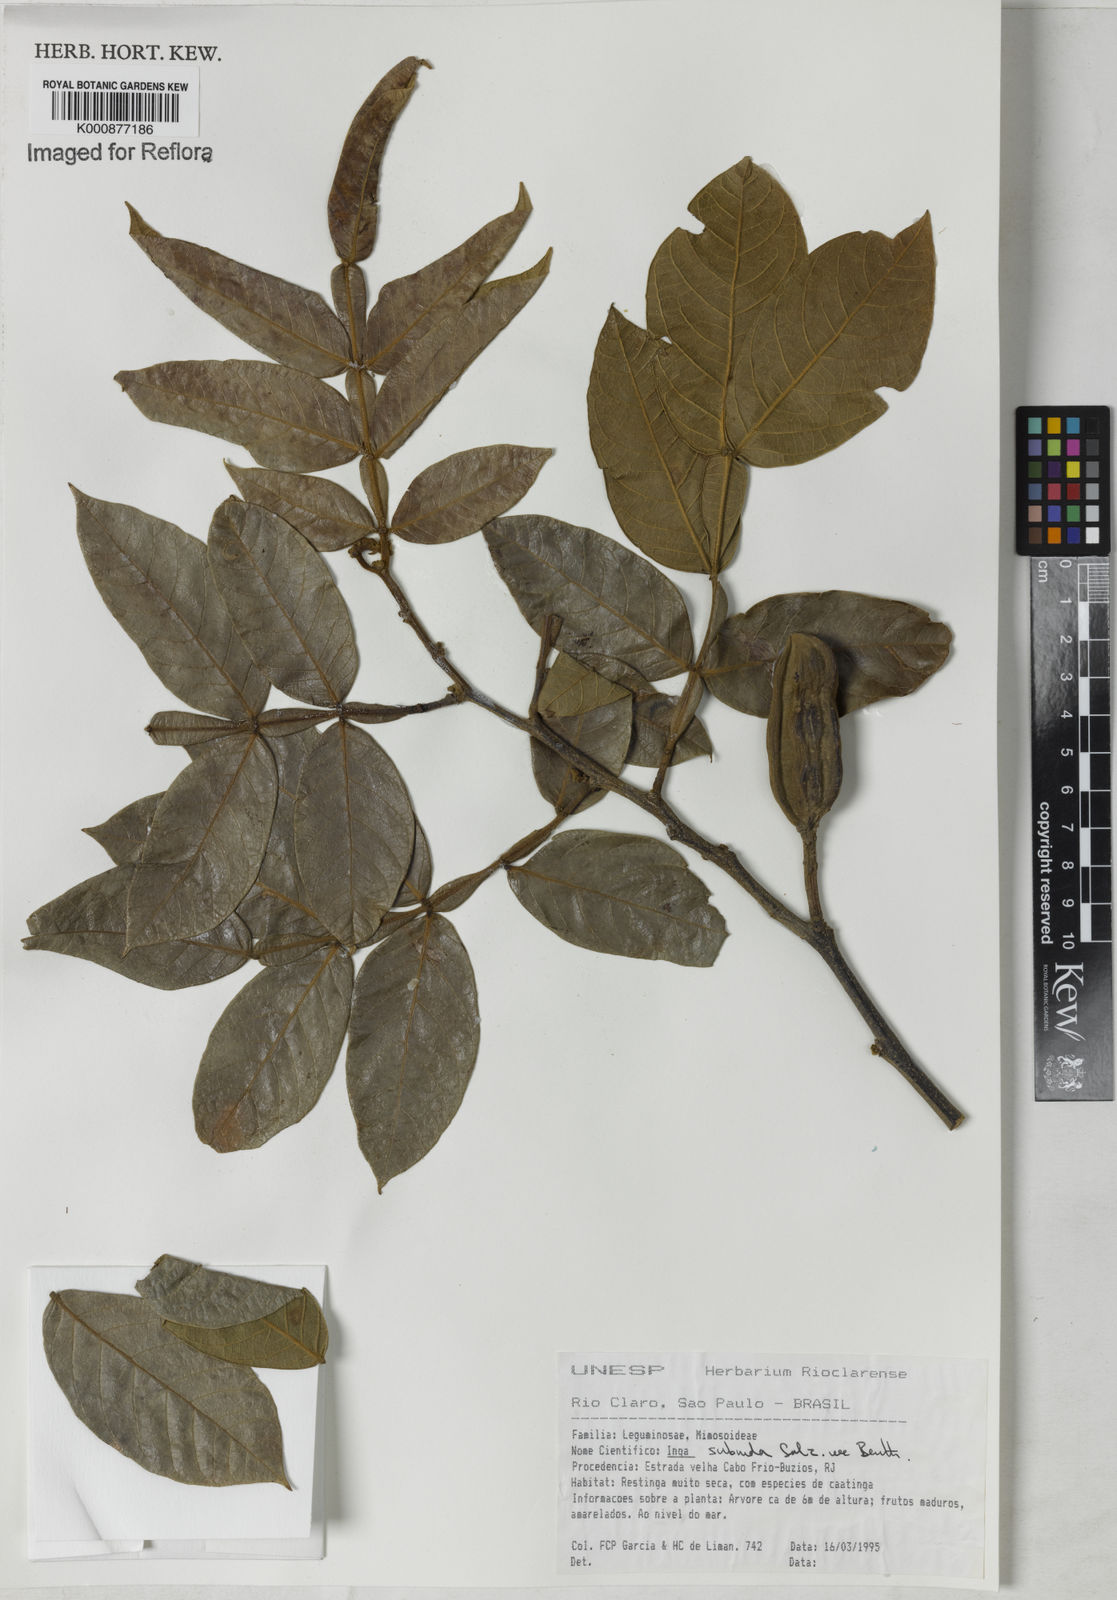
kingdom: Plantae
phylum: Tracheophyta
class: Magnoliopsida
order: Fabales
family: Fabaceae
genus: Inga
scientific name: Inga subnuda
